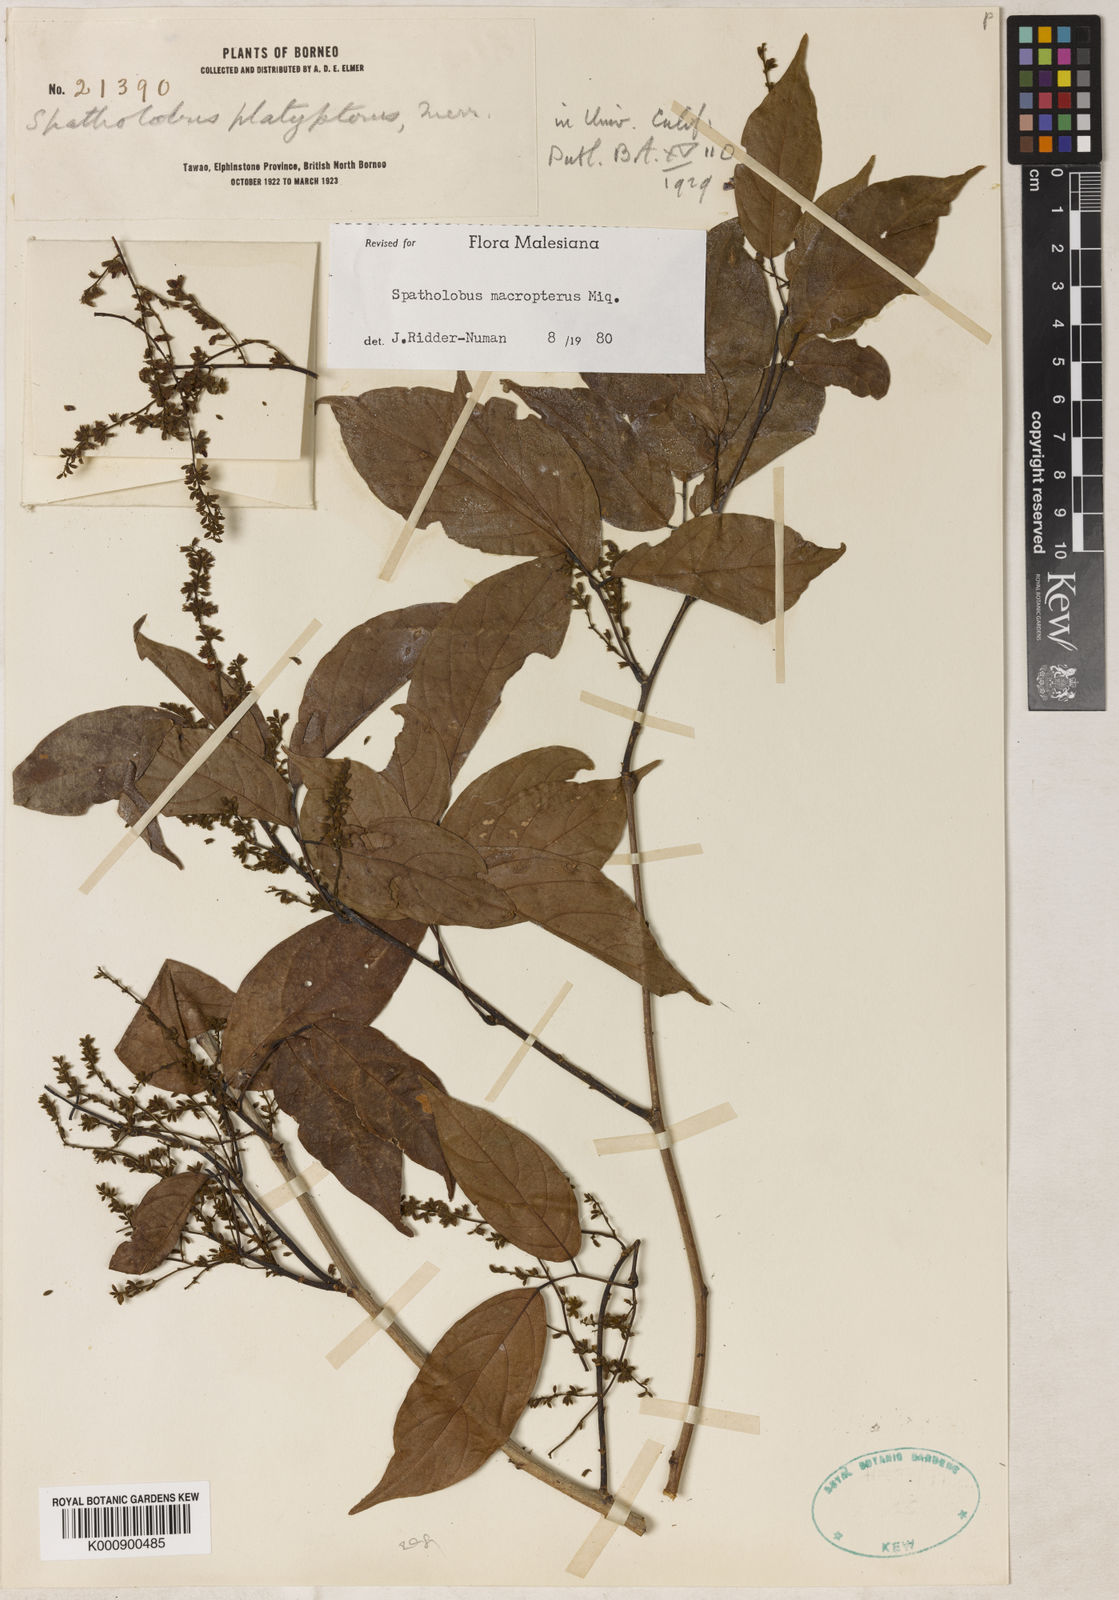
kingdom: Plantae
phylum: Tracheophyta
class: Magnoliopsida
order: Fabales
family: Fabaceae
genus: Spatholobus
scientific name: Spatholobus macropterus
